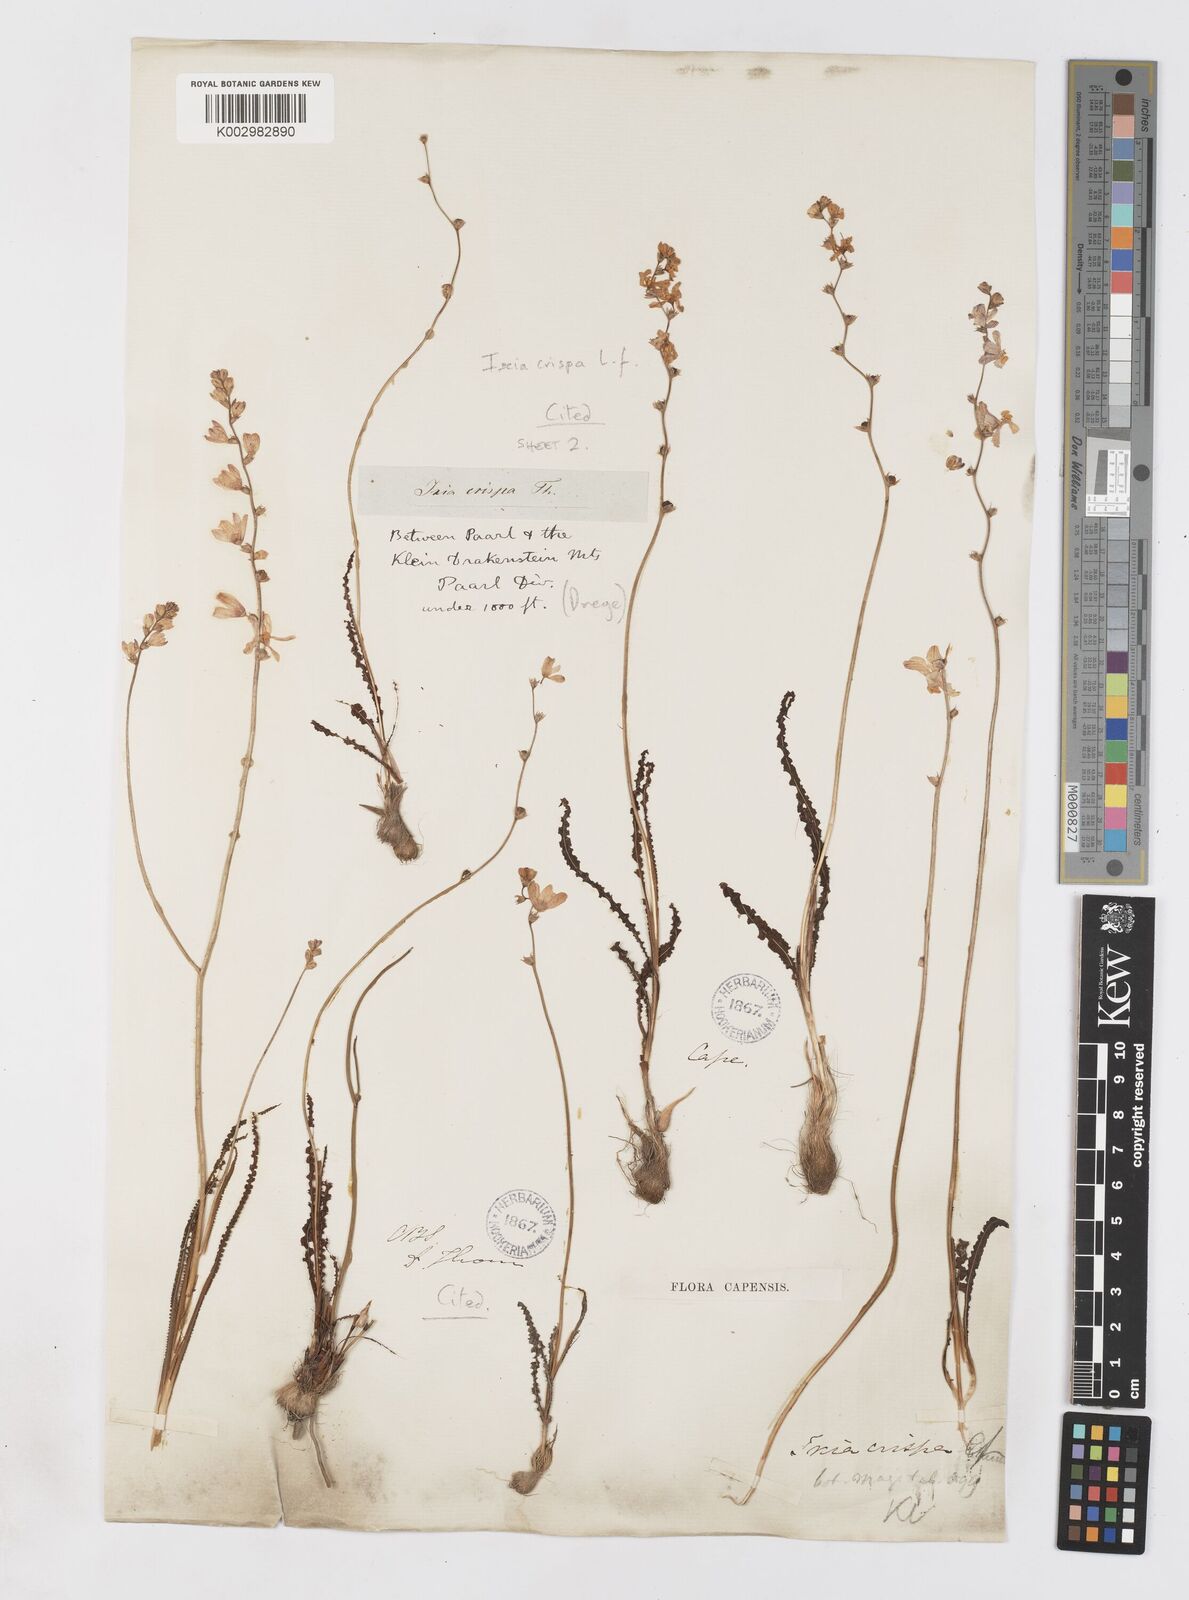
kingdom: Plantae
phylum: Tracheophyta
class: Liliopsida
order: Asparagales
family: Iridaceae
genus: Ixia
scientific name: Ixia erubescens
